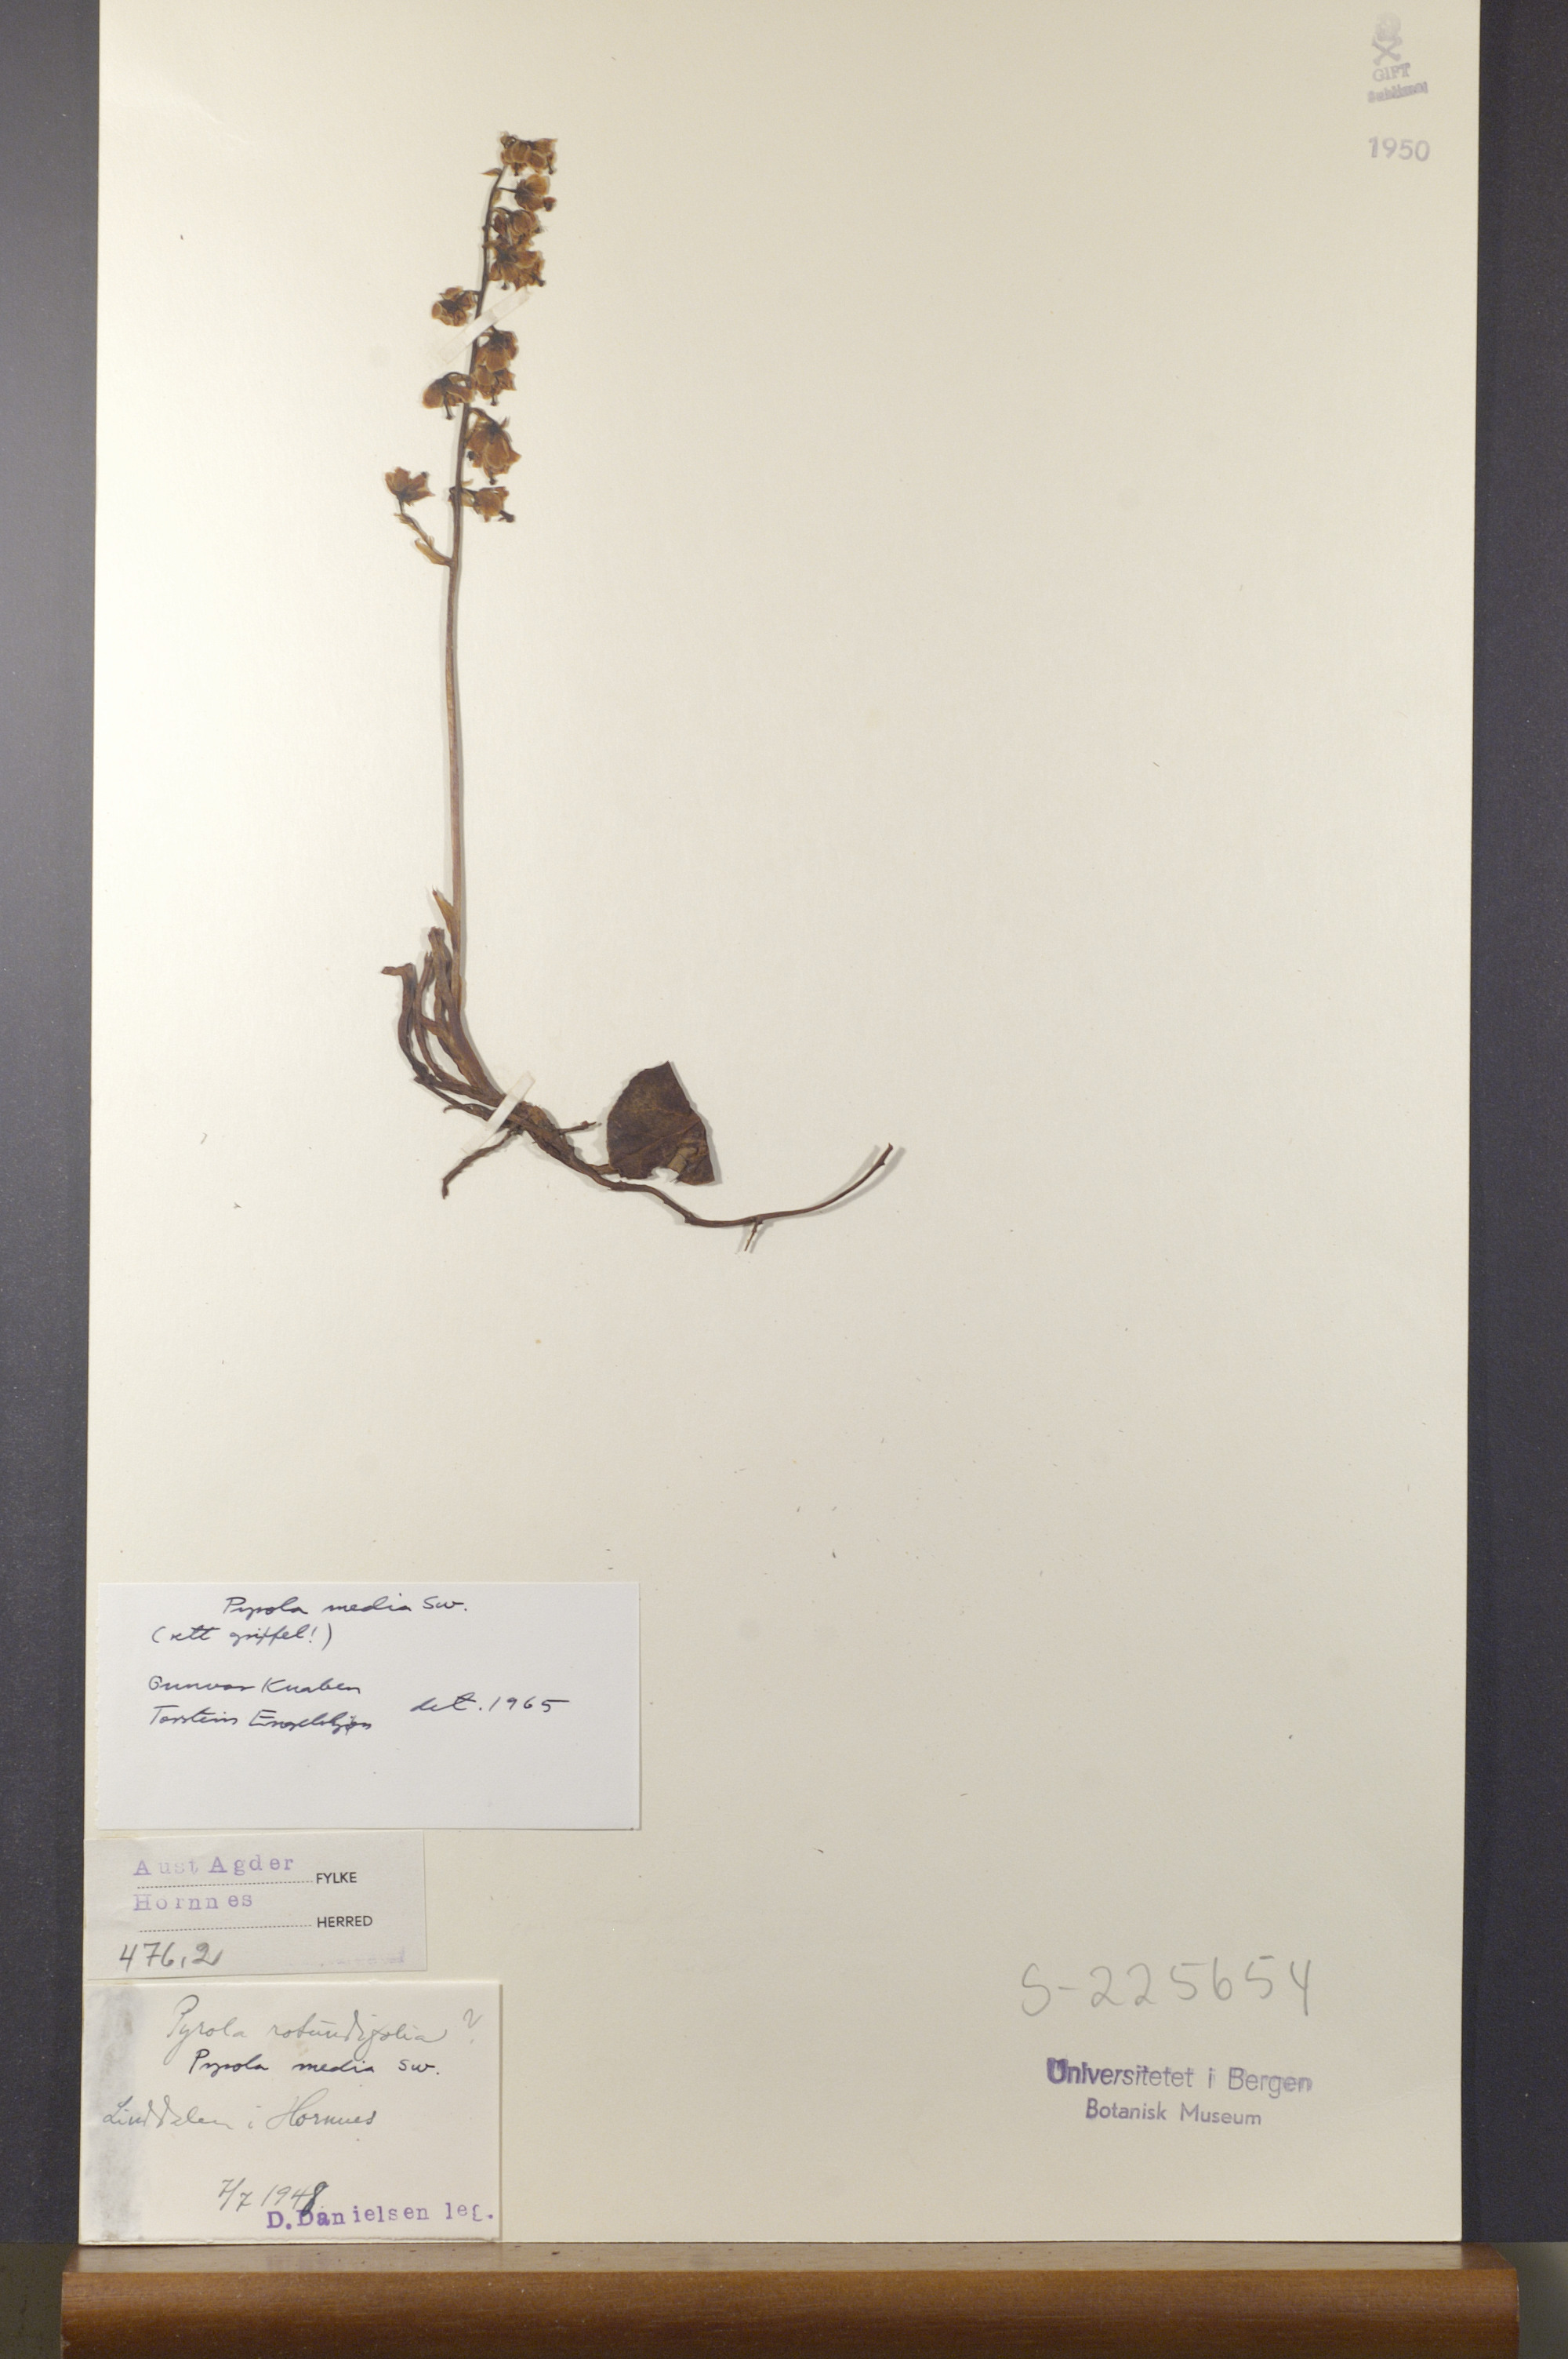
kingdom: Plantae
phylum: Tracheophyta
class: Magnoliopsida
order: Ericales
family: Ericaceae
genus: Pyrola
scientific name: Pyrola media
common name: Intermediate wintergreen
